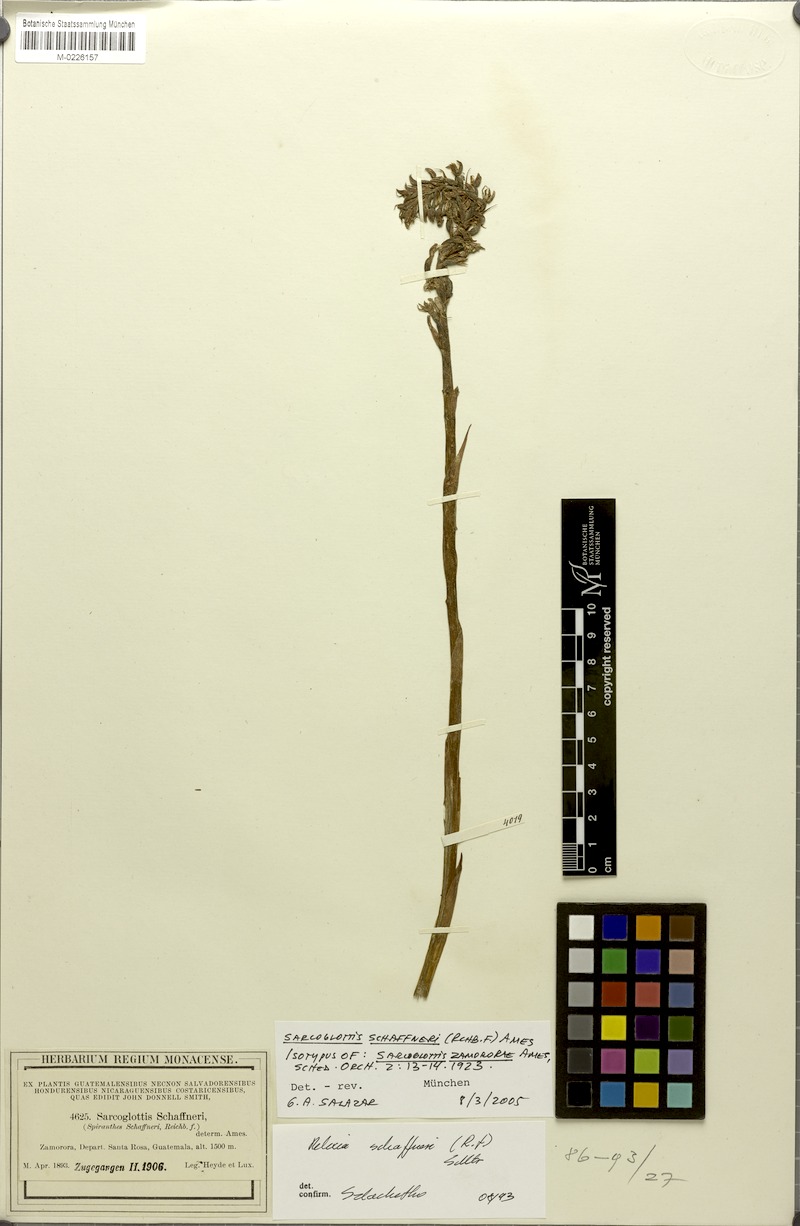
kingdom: Plantae
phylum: Tracheophyta
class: Liliopsida
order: Asparagales
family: Orchidaceae
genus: Sarcoglottis
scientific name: Sarcoglottis schaffneri
